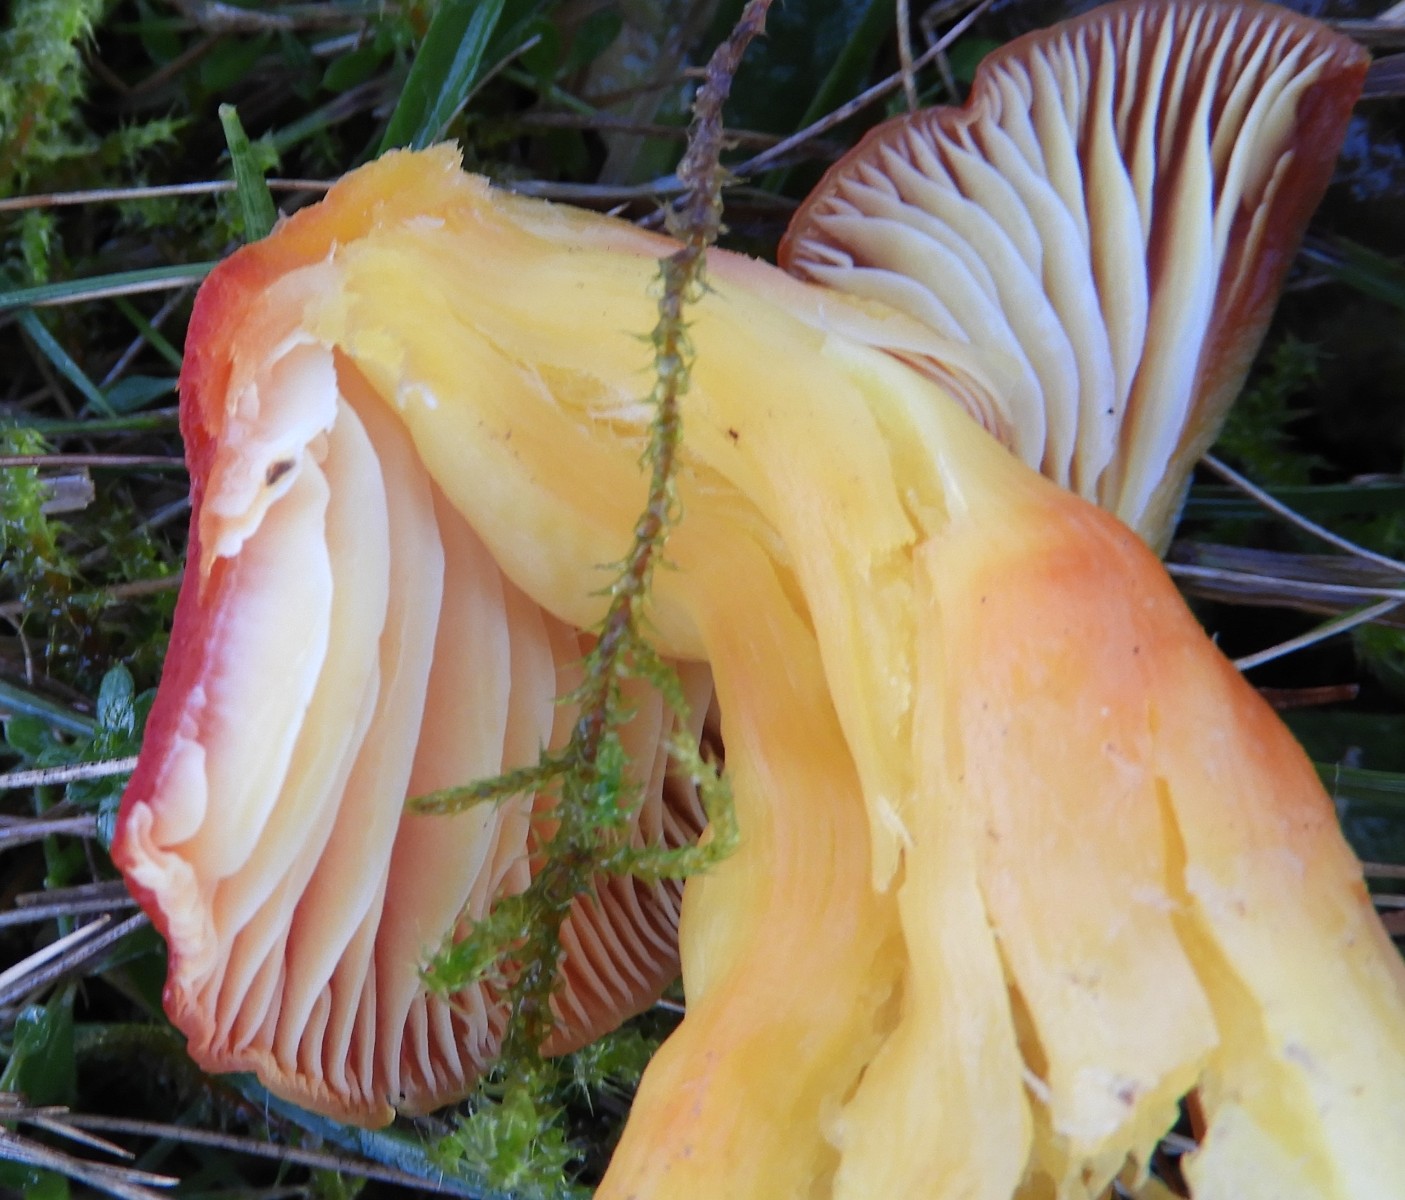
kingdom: Fungi
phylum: Basidiomycota
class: Agaricomycetes
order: Agaricales
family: Hygrophoraceae
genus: Hygrocybe
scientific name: Hygrocybe splendidissima
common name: knaldrød vokshat
